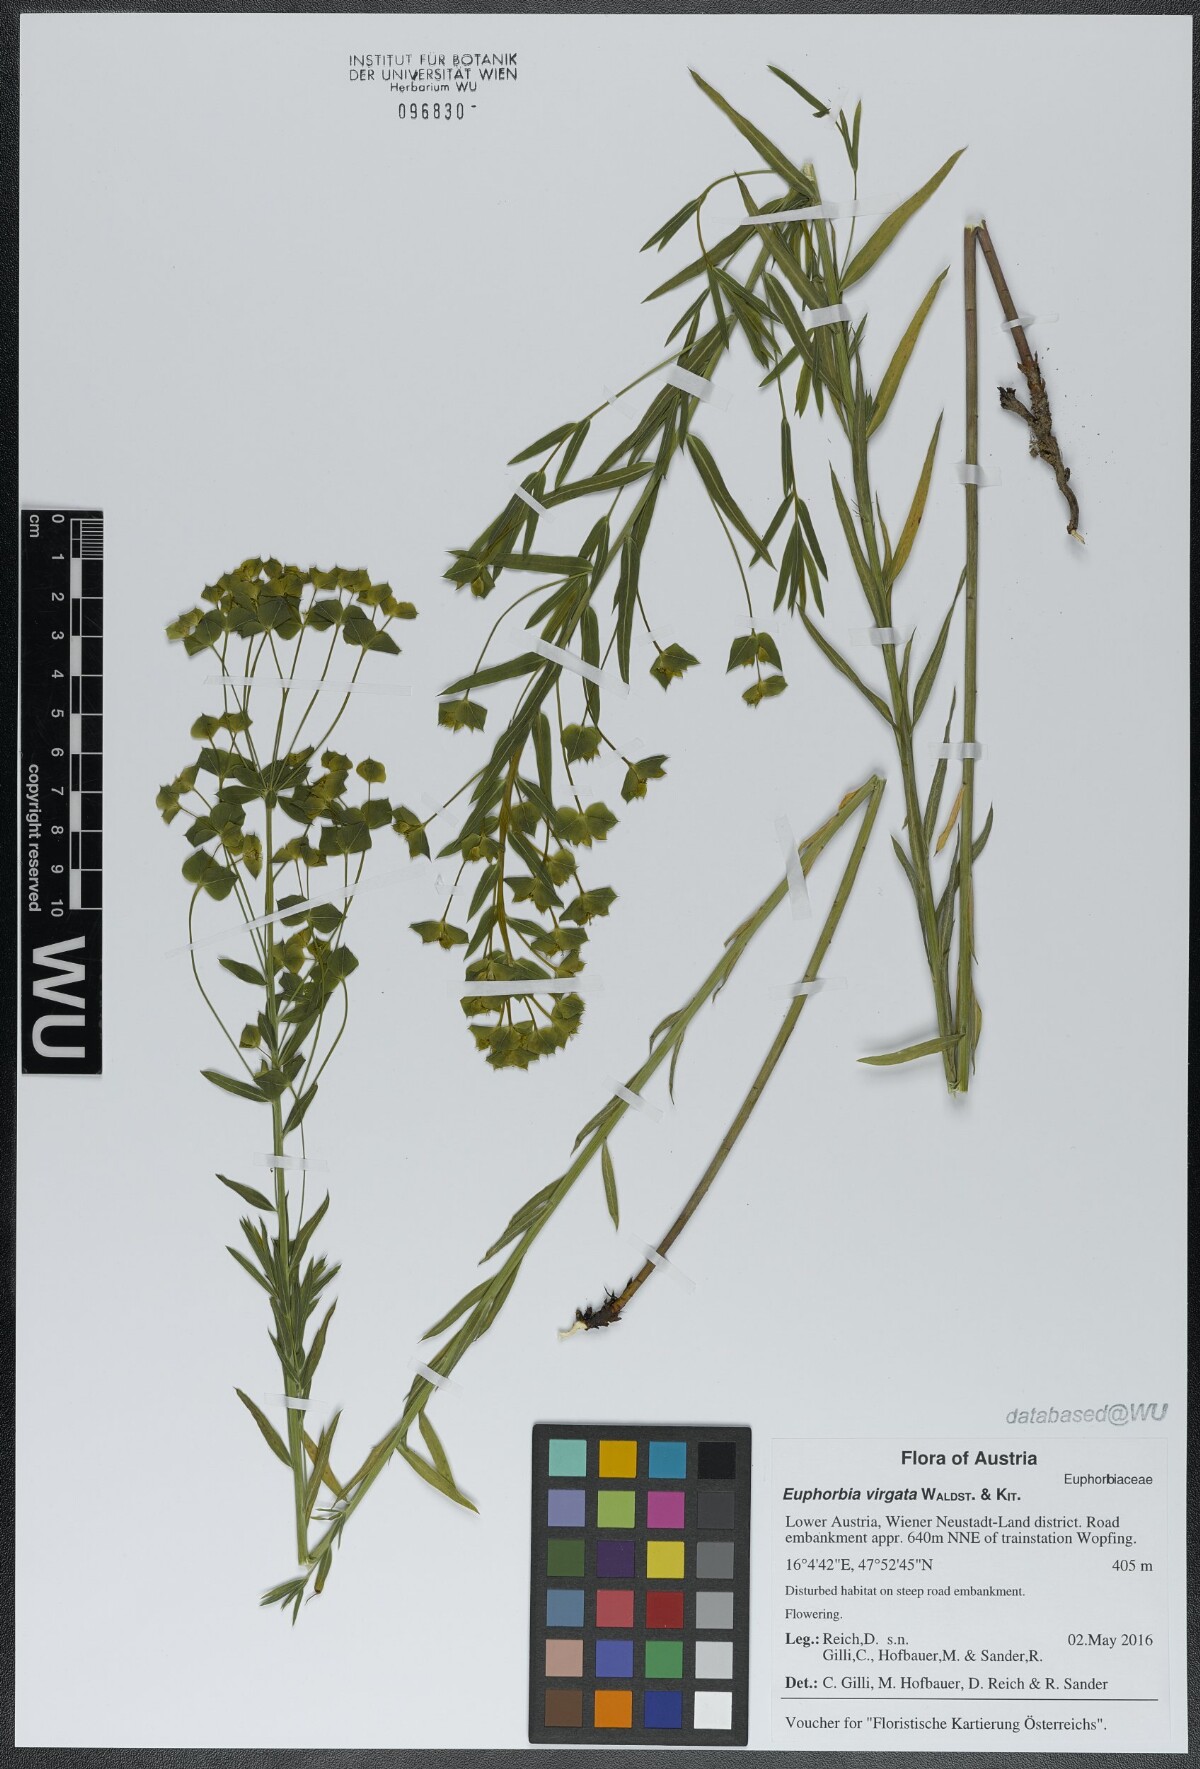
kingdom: Plantae
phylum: Tracheophyta
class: Magnoliopsida
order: Malpighiales
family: Euphorbiaceae
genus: Euphorbia
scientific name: Euphorbia virgata
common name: Leafy spurge
